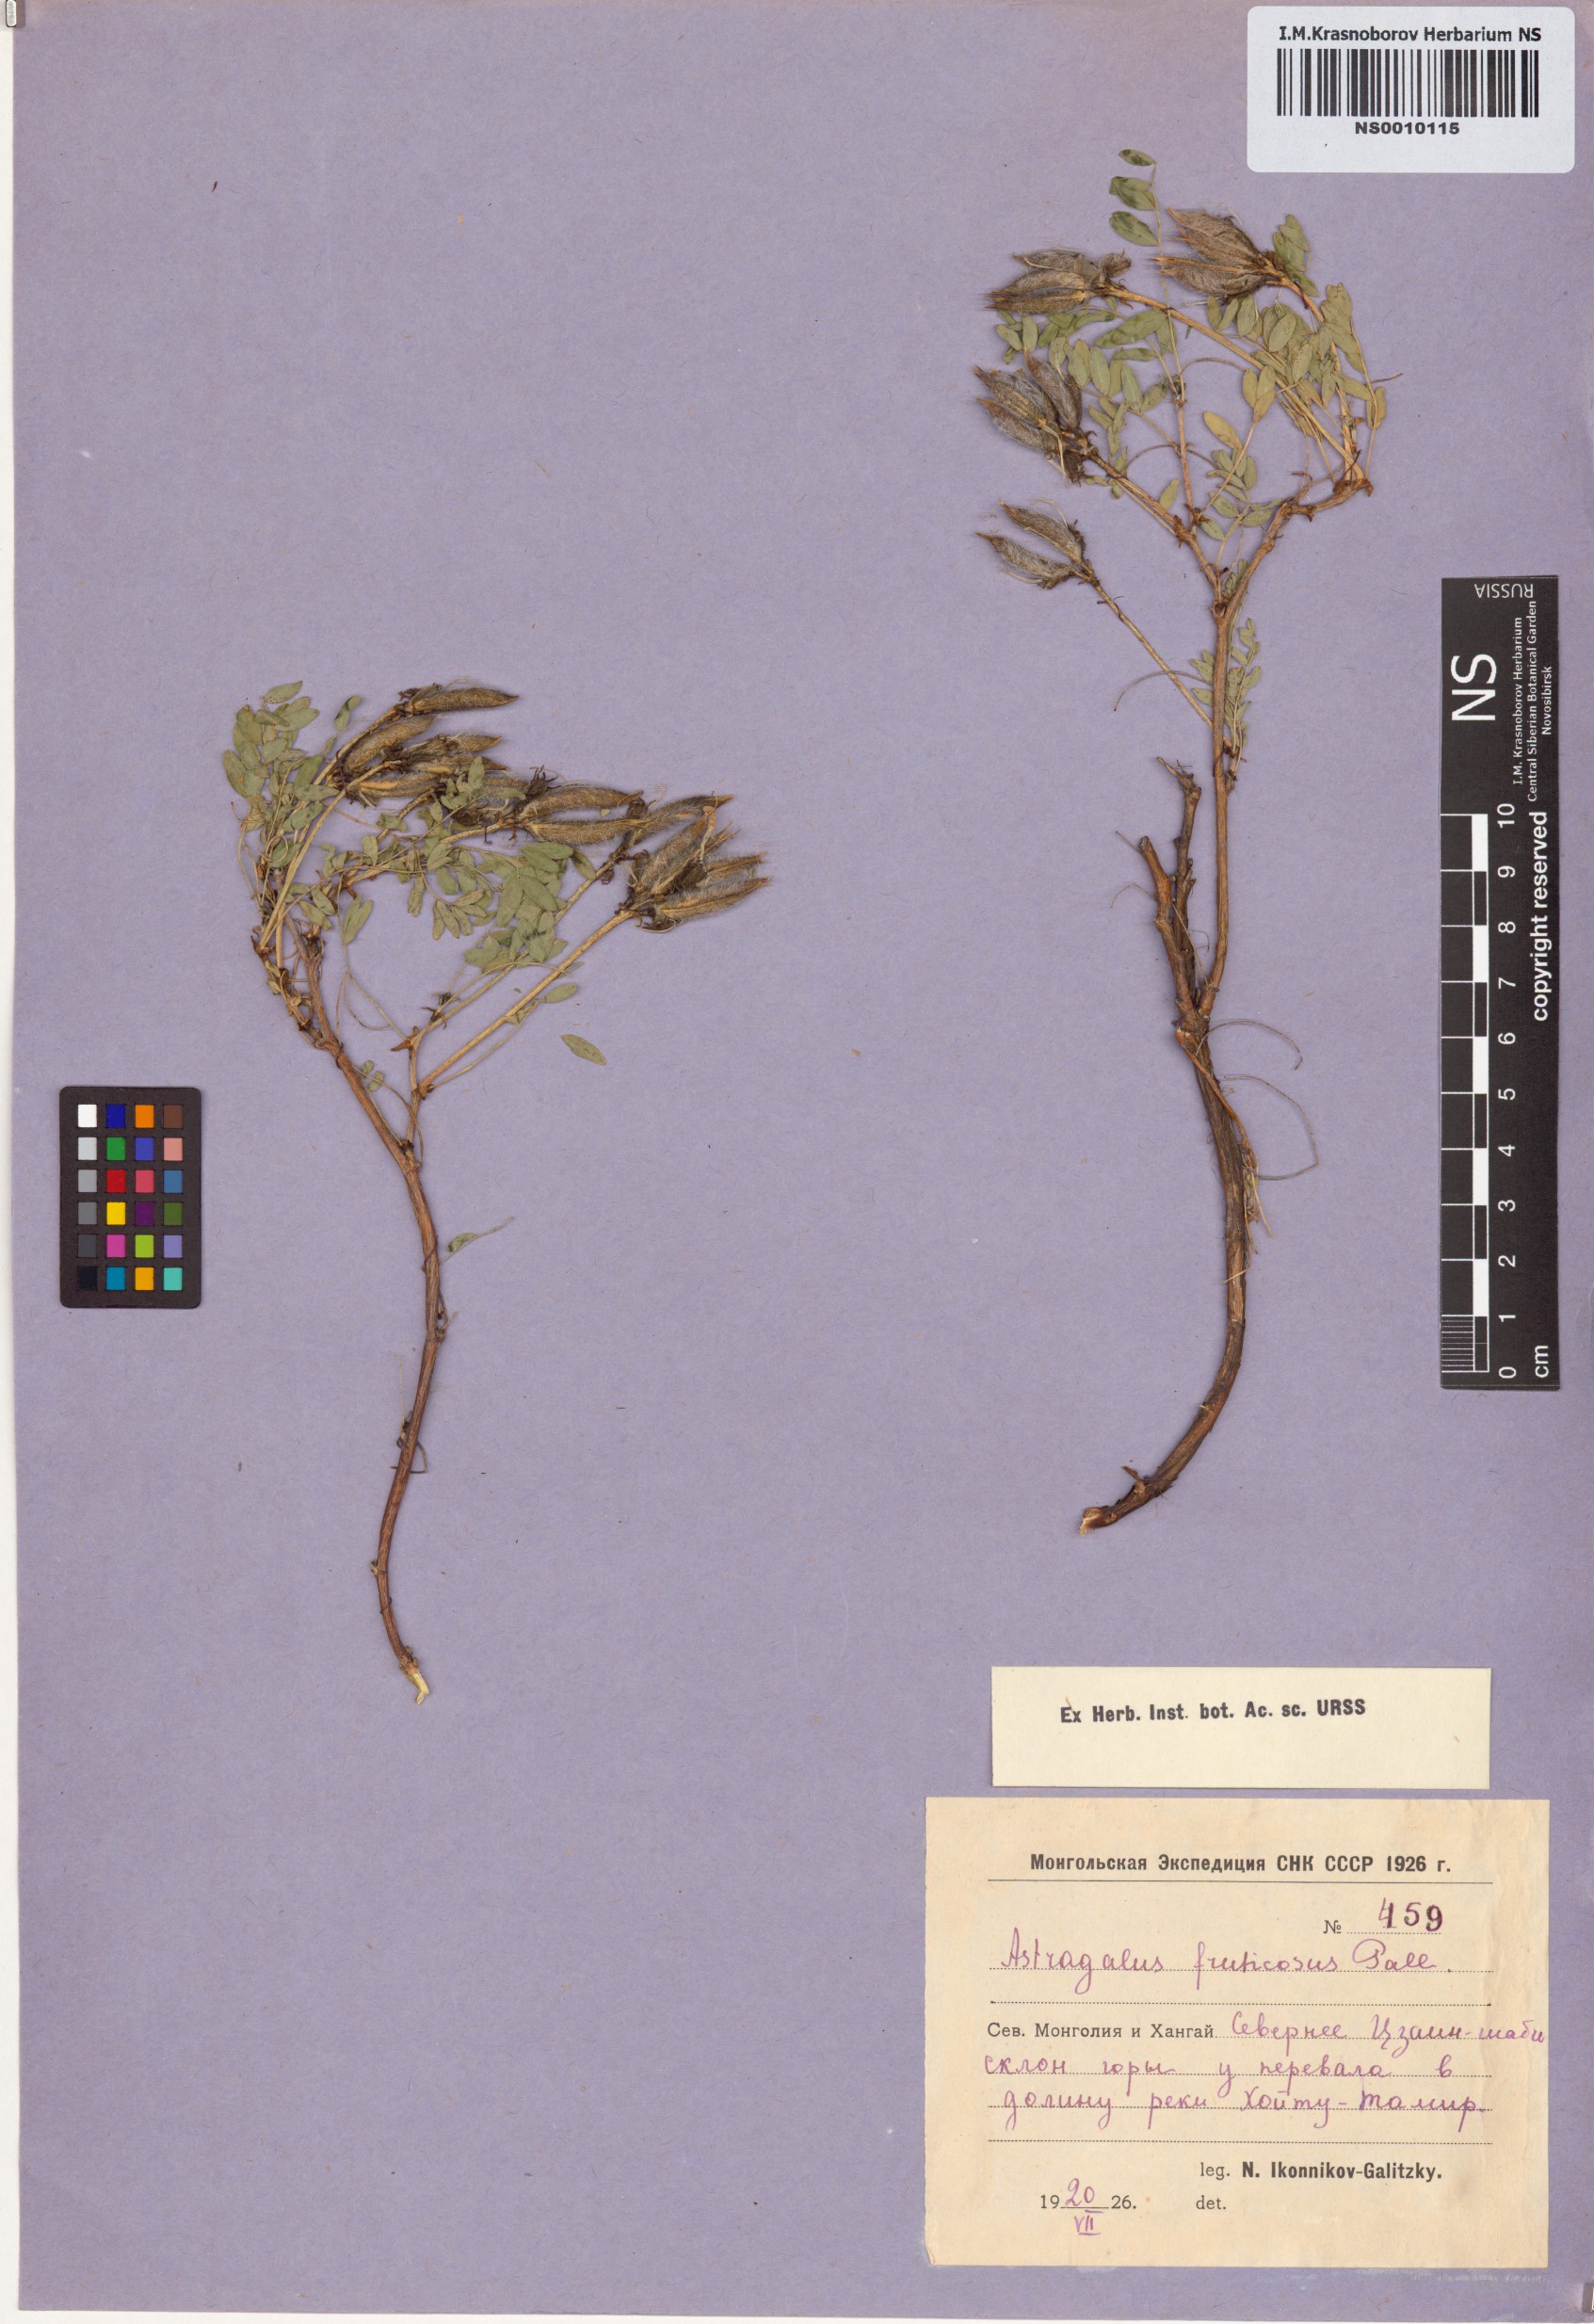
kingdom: Plantae
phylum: Tracheophyta
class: Magnoliopsida
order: Fabales
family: Fabaceae
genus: Astragalus
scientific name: Astragalus syriacus
